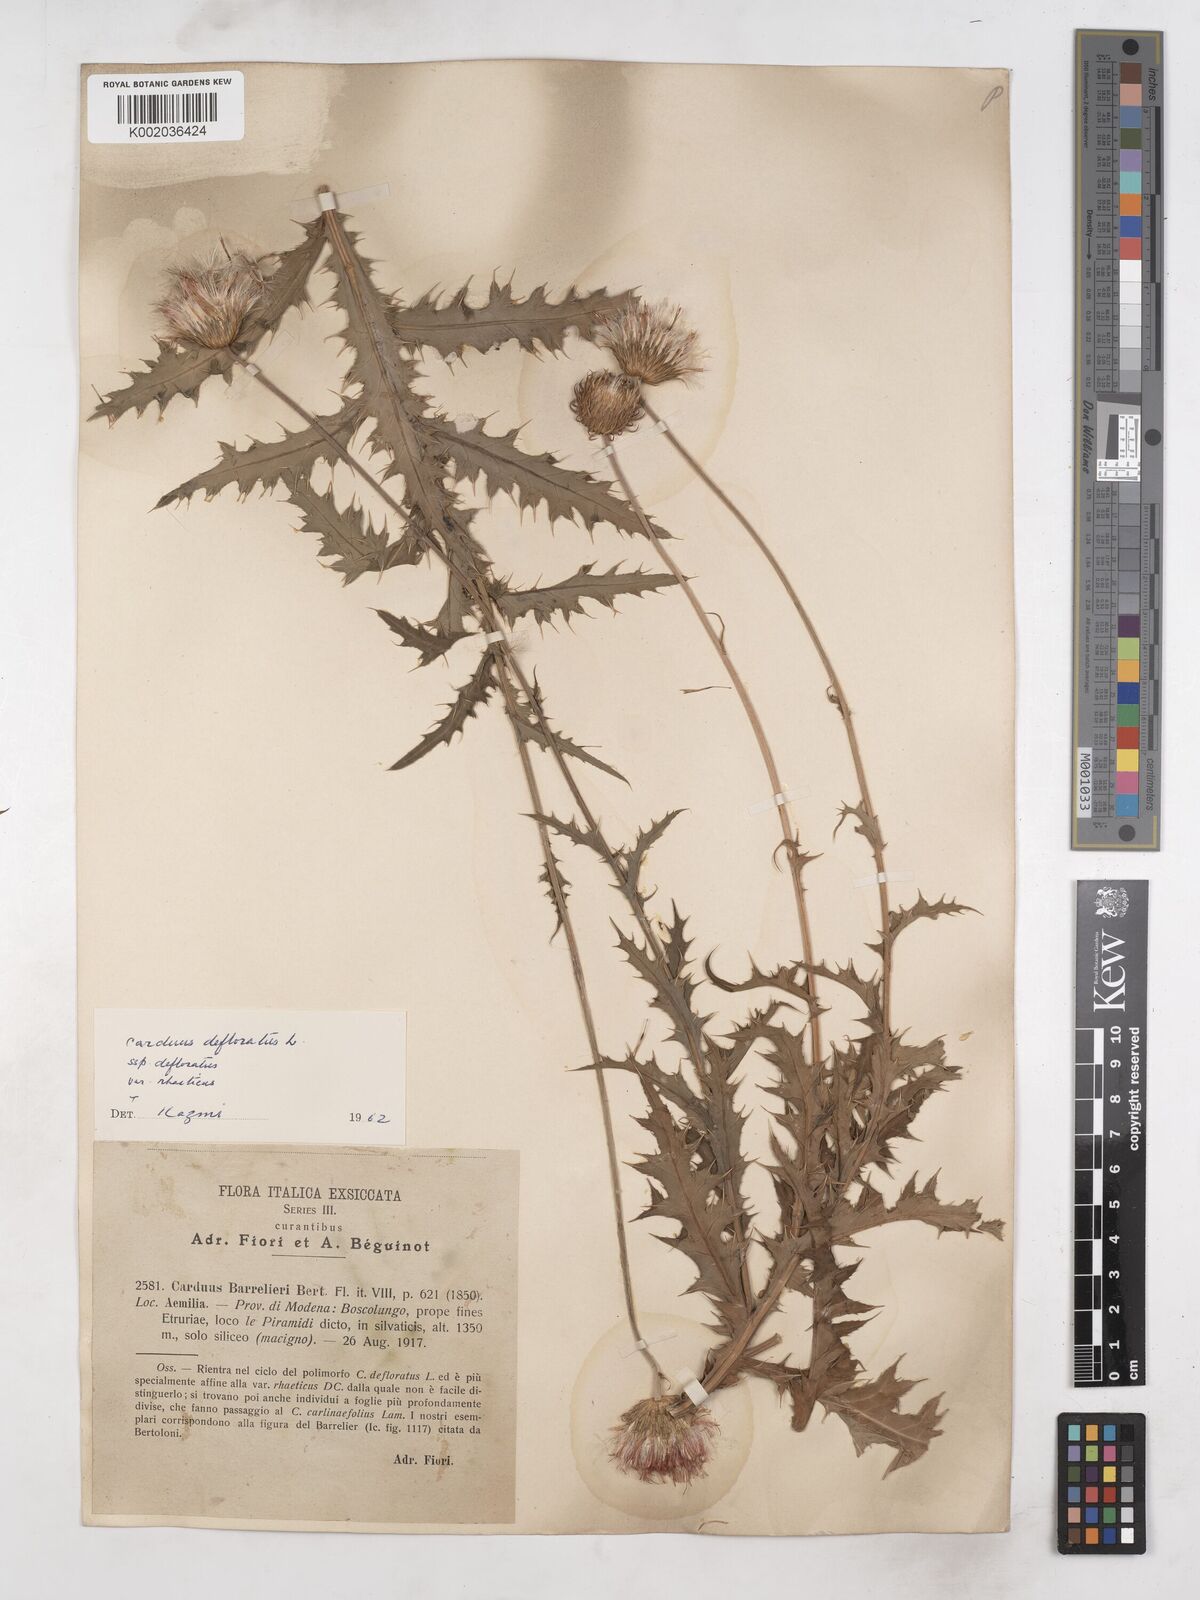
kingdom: Plantae
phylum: Tracheophyta
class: Magnoliopsida
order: Asterales
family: Asteraceae
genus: Carduus
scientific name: Carduus carlinifolius
